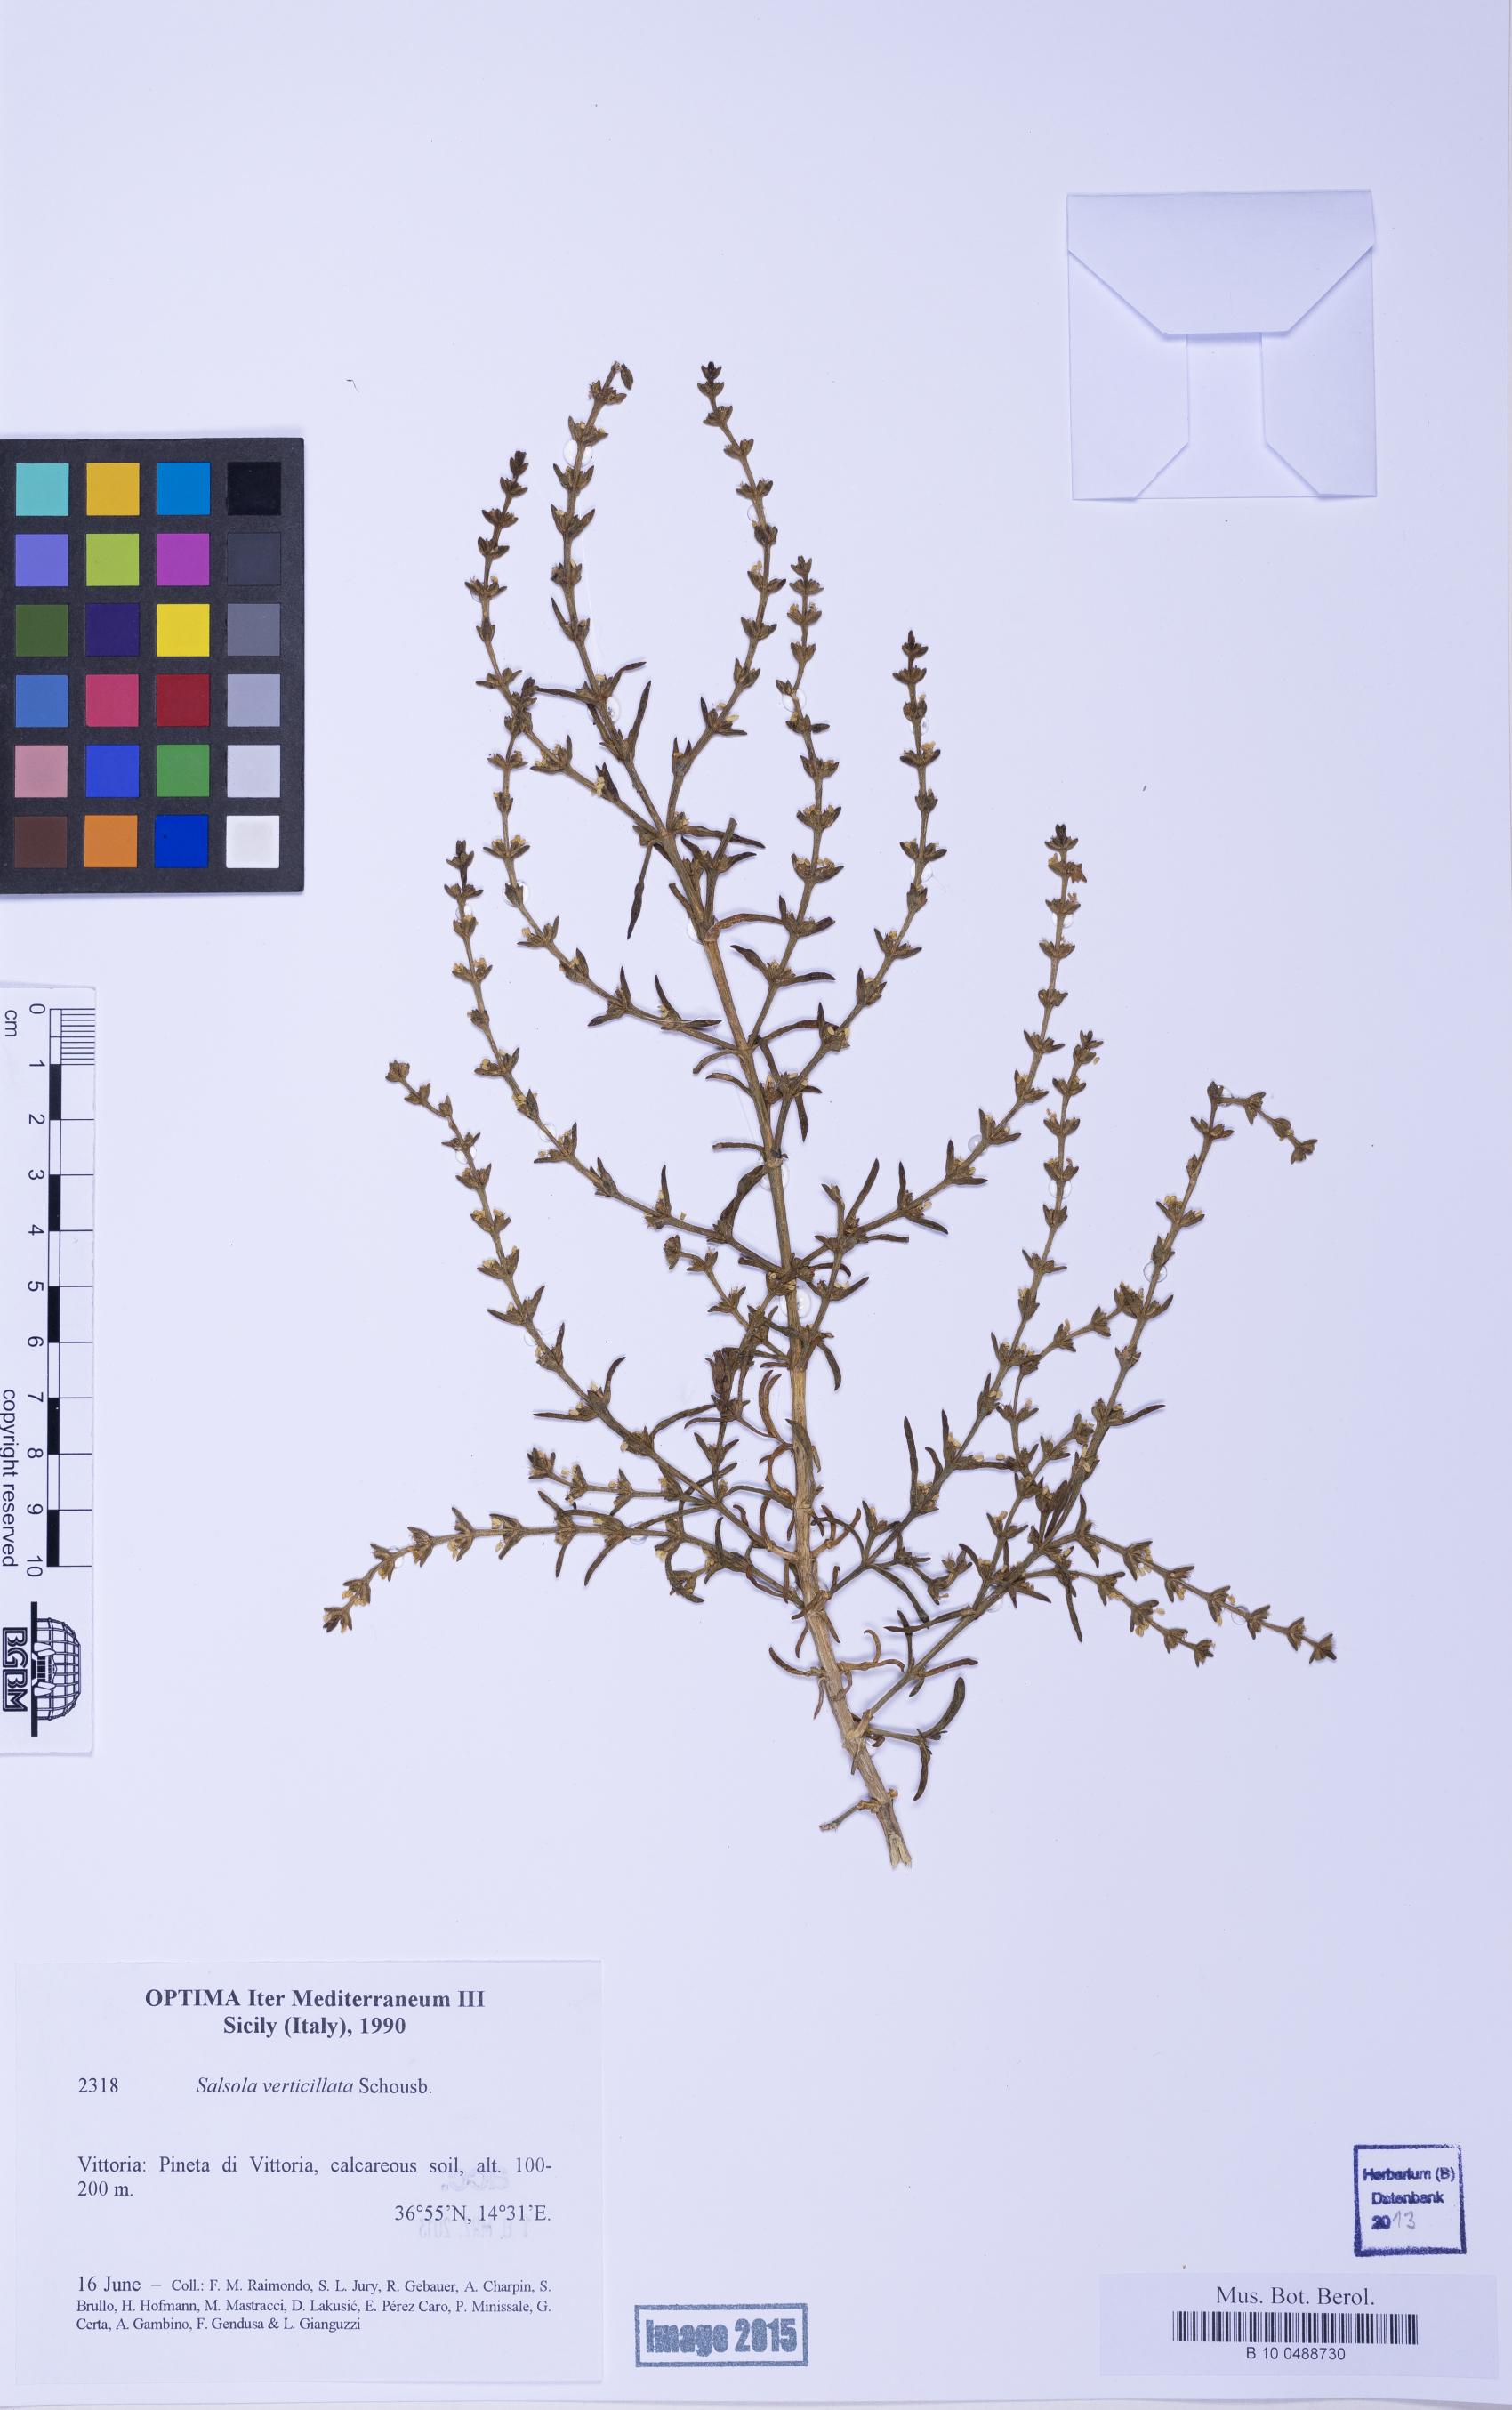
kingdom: Plantae
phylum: Tracheophyta
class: Magnoliopsida
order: Caryophyllales
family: Amaranthaceae
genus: Salsola
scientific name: Salsola verticillata
